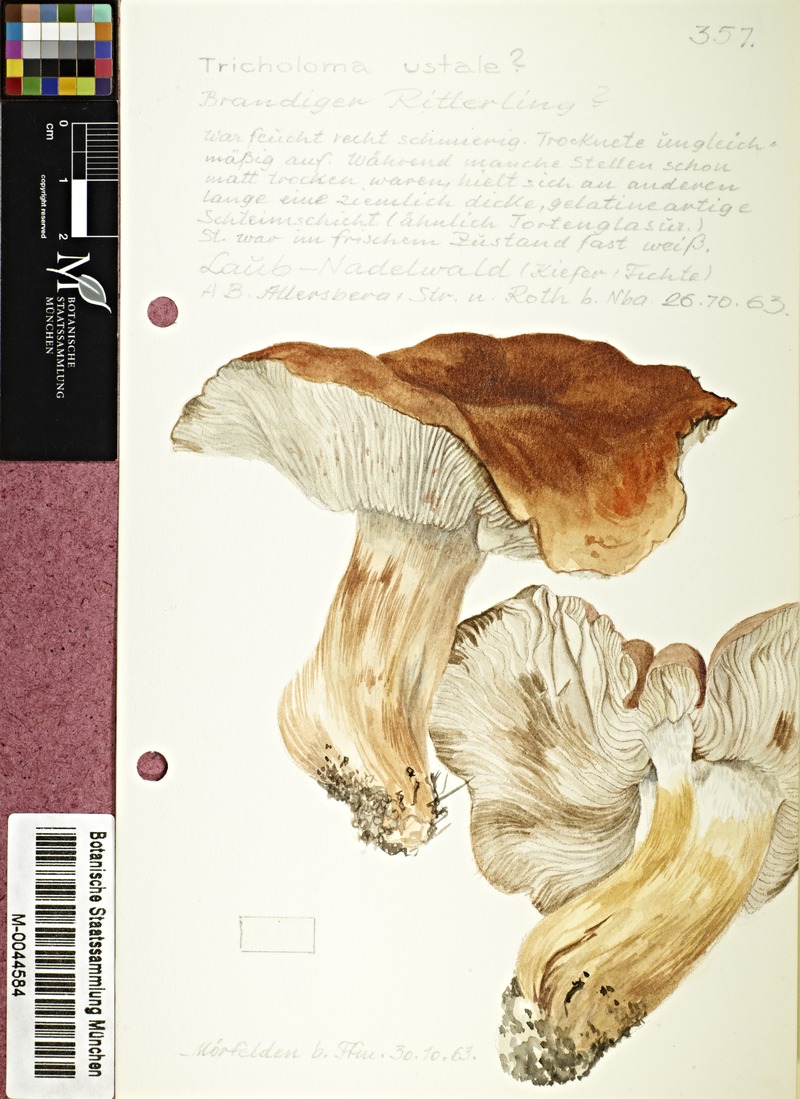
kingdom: Fungi
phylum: Basidiomycota
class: Agaricomycetes
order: Agaricales
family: Tricholomataceae
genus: Tricholoma
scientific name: Tricholoma ustale
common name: Burnt knight
